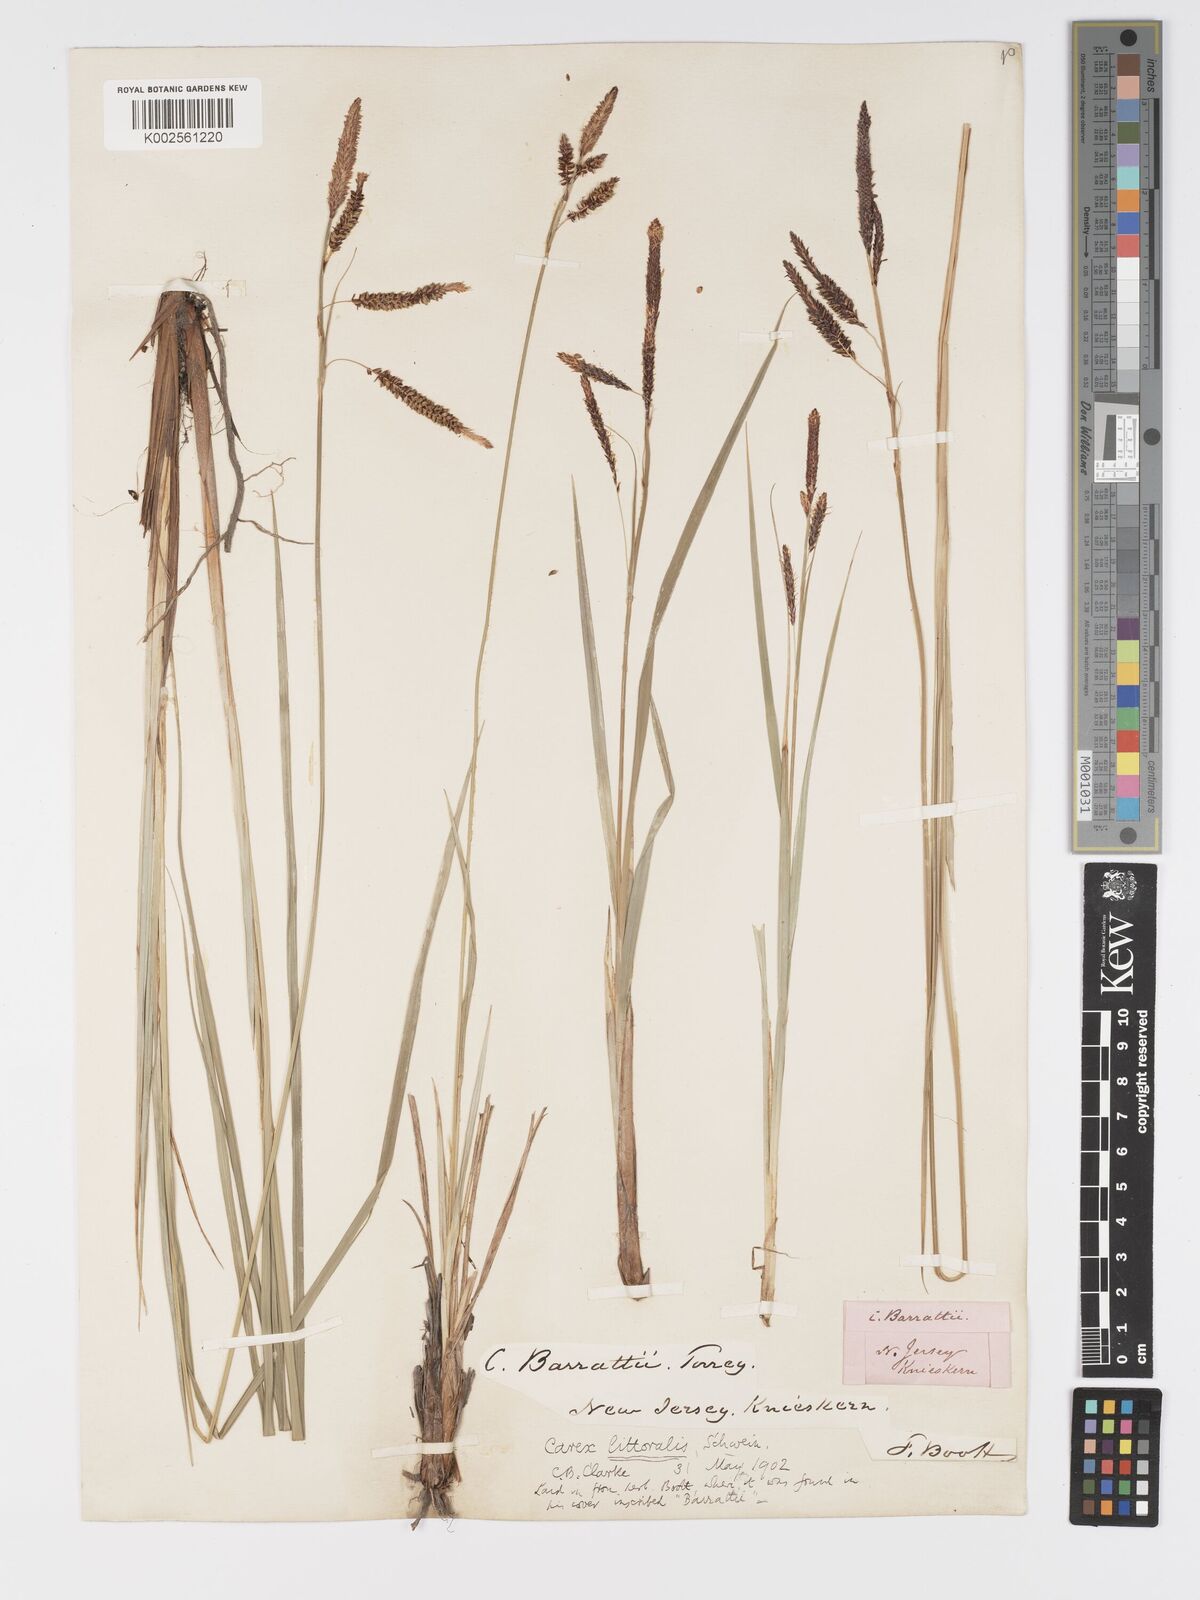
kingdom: Plantae
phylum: Tracheophyta
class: Liliopsida
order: Poales
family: Cyperaceae
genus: Carex
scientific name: Carex barrattii
